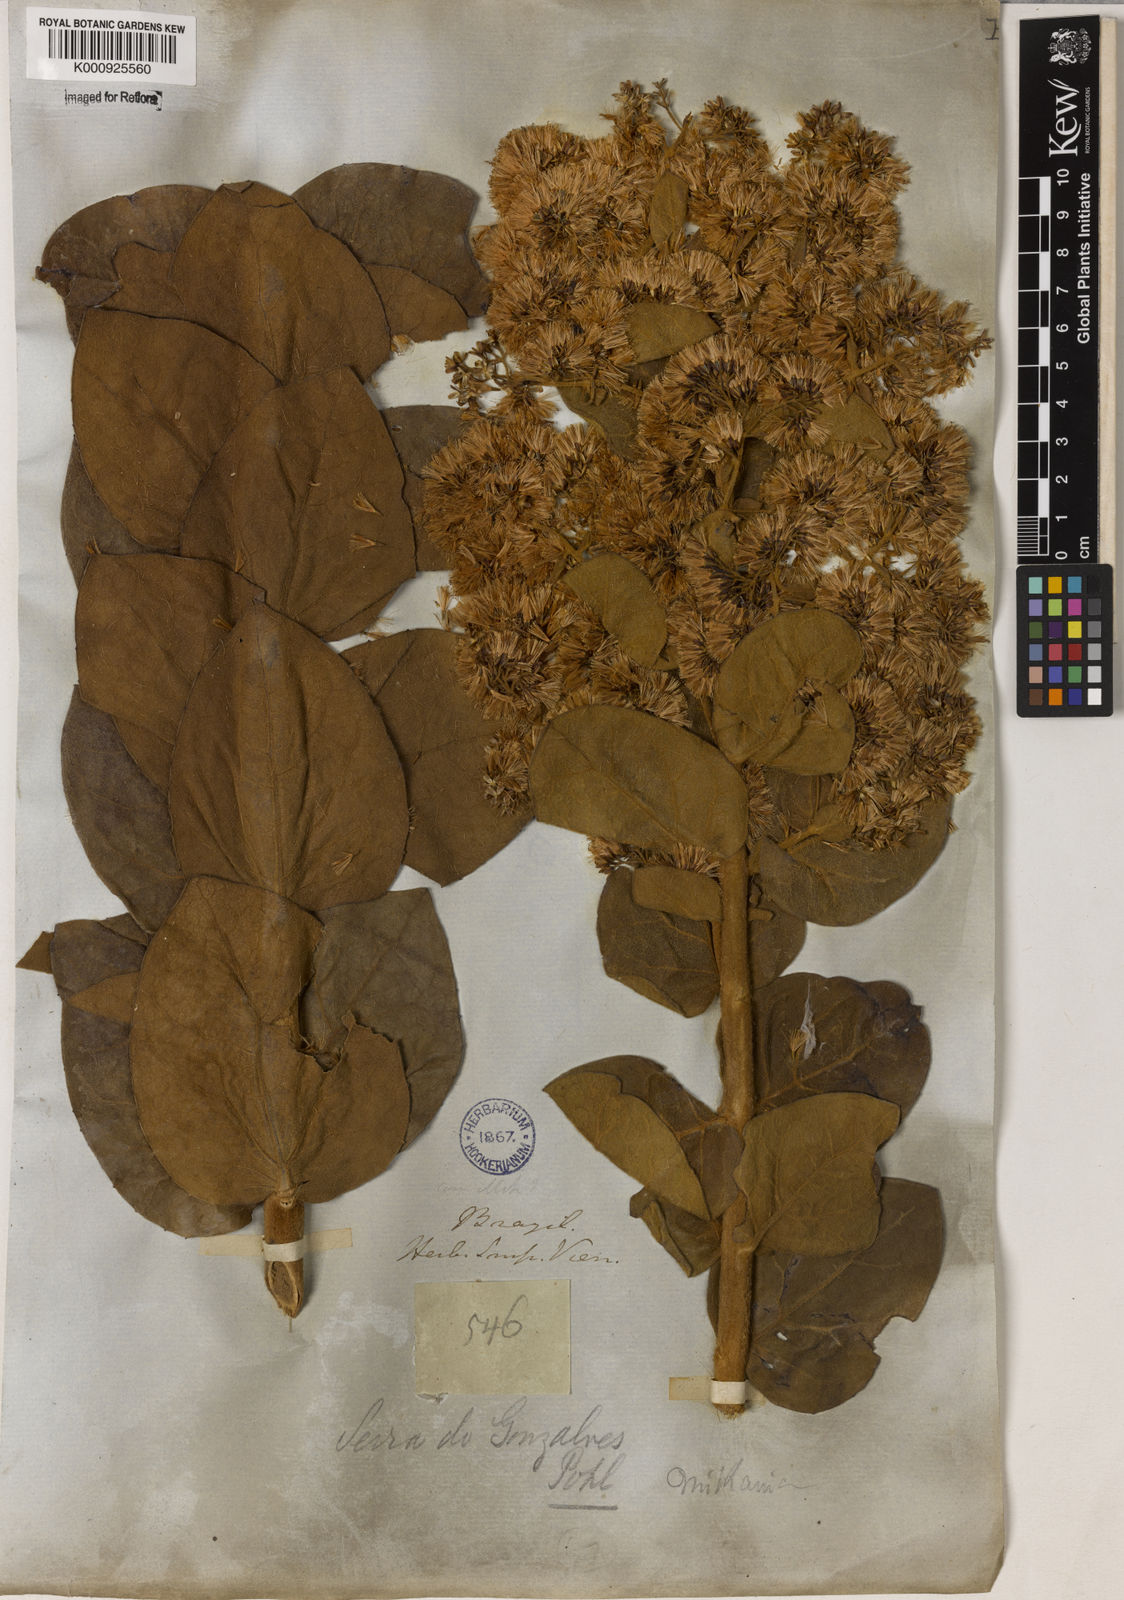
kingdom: Plantae
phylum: Tracheophyta
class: Magnoliopsida
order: Asterales
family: Asteraceae
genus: Mikania
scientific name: Mikania leiolaena
